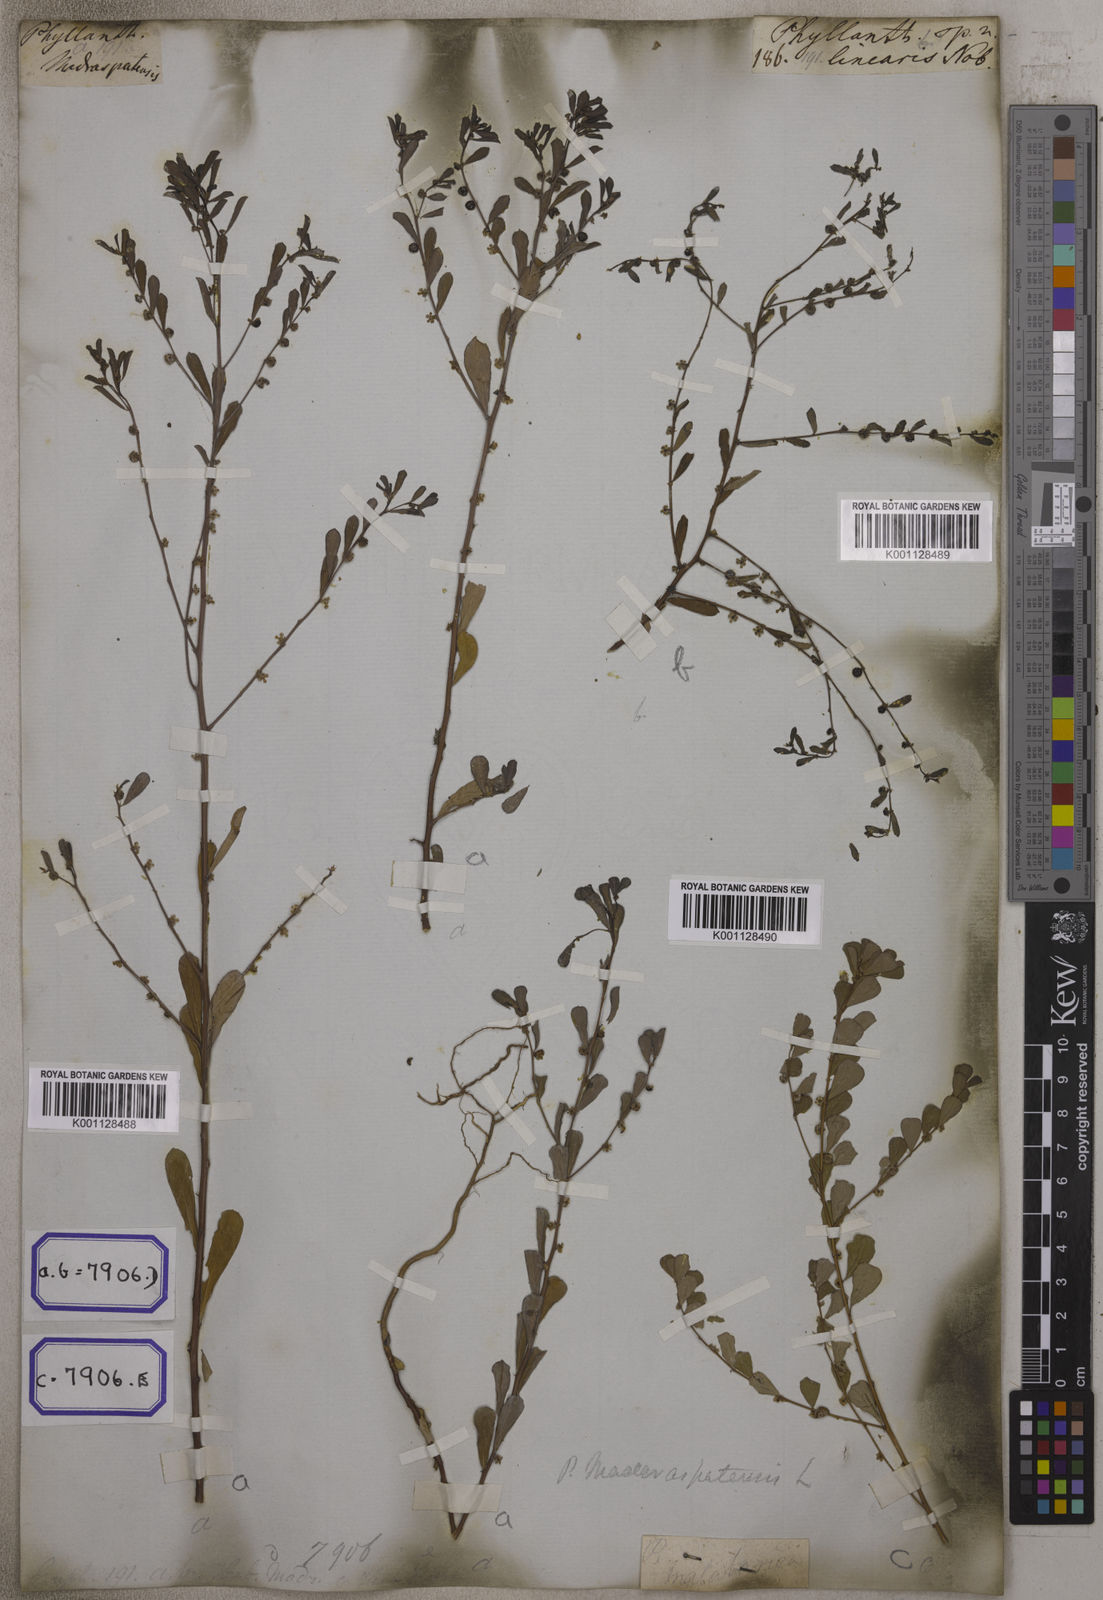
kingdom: Plantae
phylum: Tracheophyta
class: Magnoliopsida
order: Malpighiales
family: Euphorbiaceae
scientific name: Euphorbiaceae
